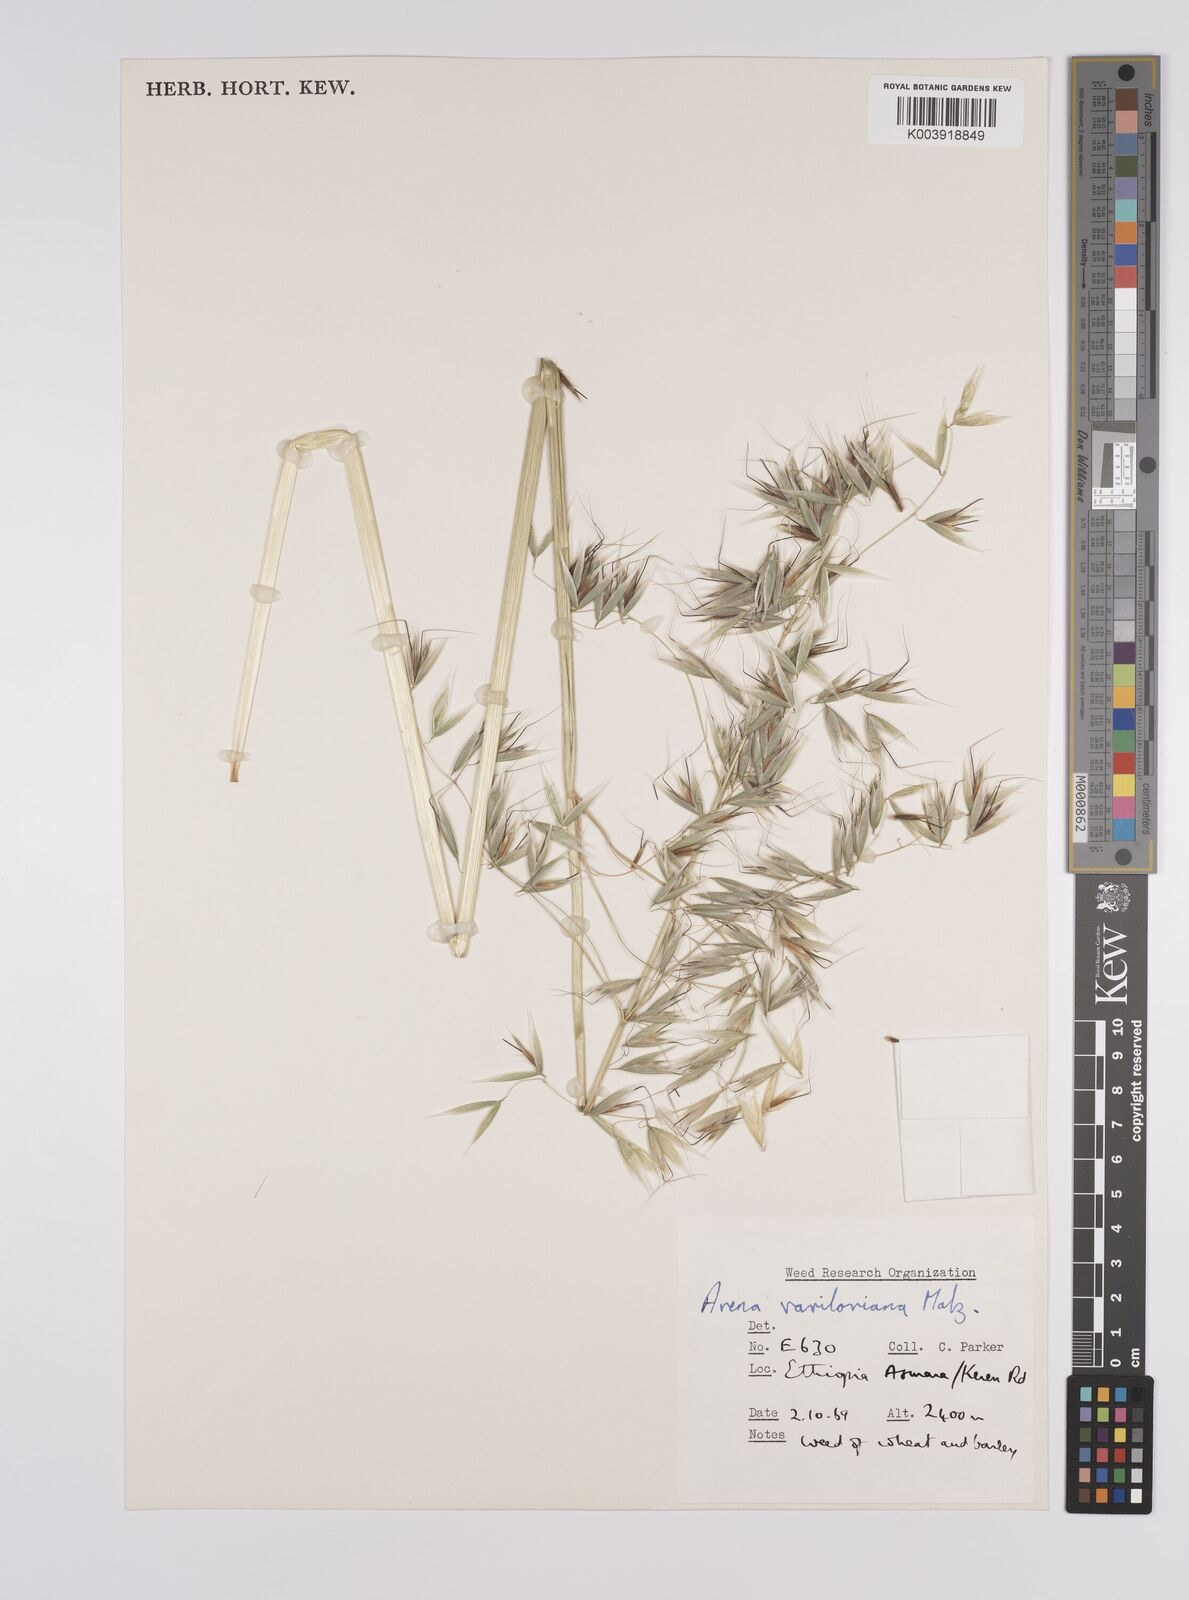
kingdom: Plantae
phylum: Tracheophyta
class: Liliopsida
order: Poales
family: Poaceae
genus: Avena
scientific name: Avena vaviloviana
